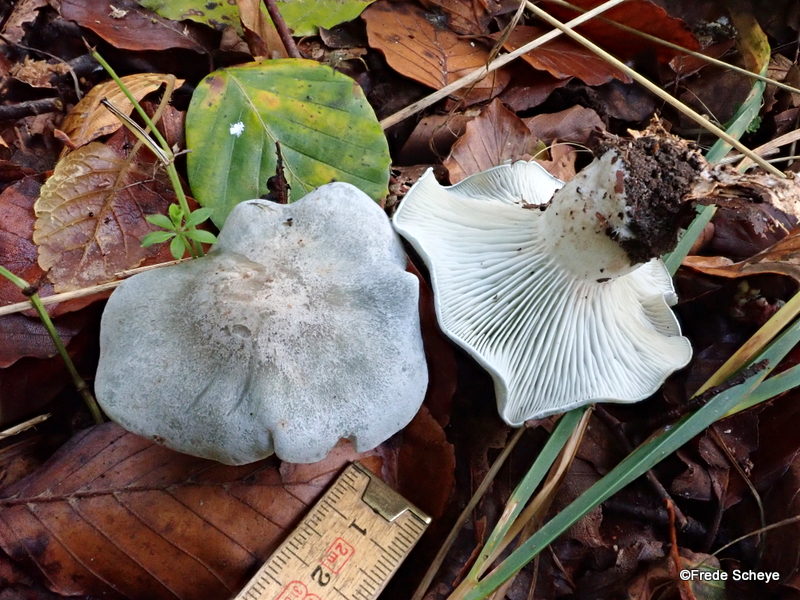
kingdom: Fungi
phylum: Basidiomycota
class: Agaricomycetes
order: Agaricales
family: Tricholomataceae
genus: Clitocybe
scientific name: Clitocybe odora
